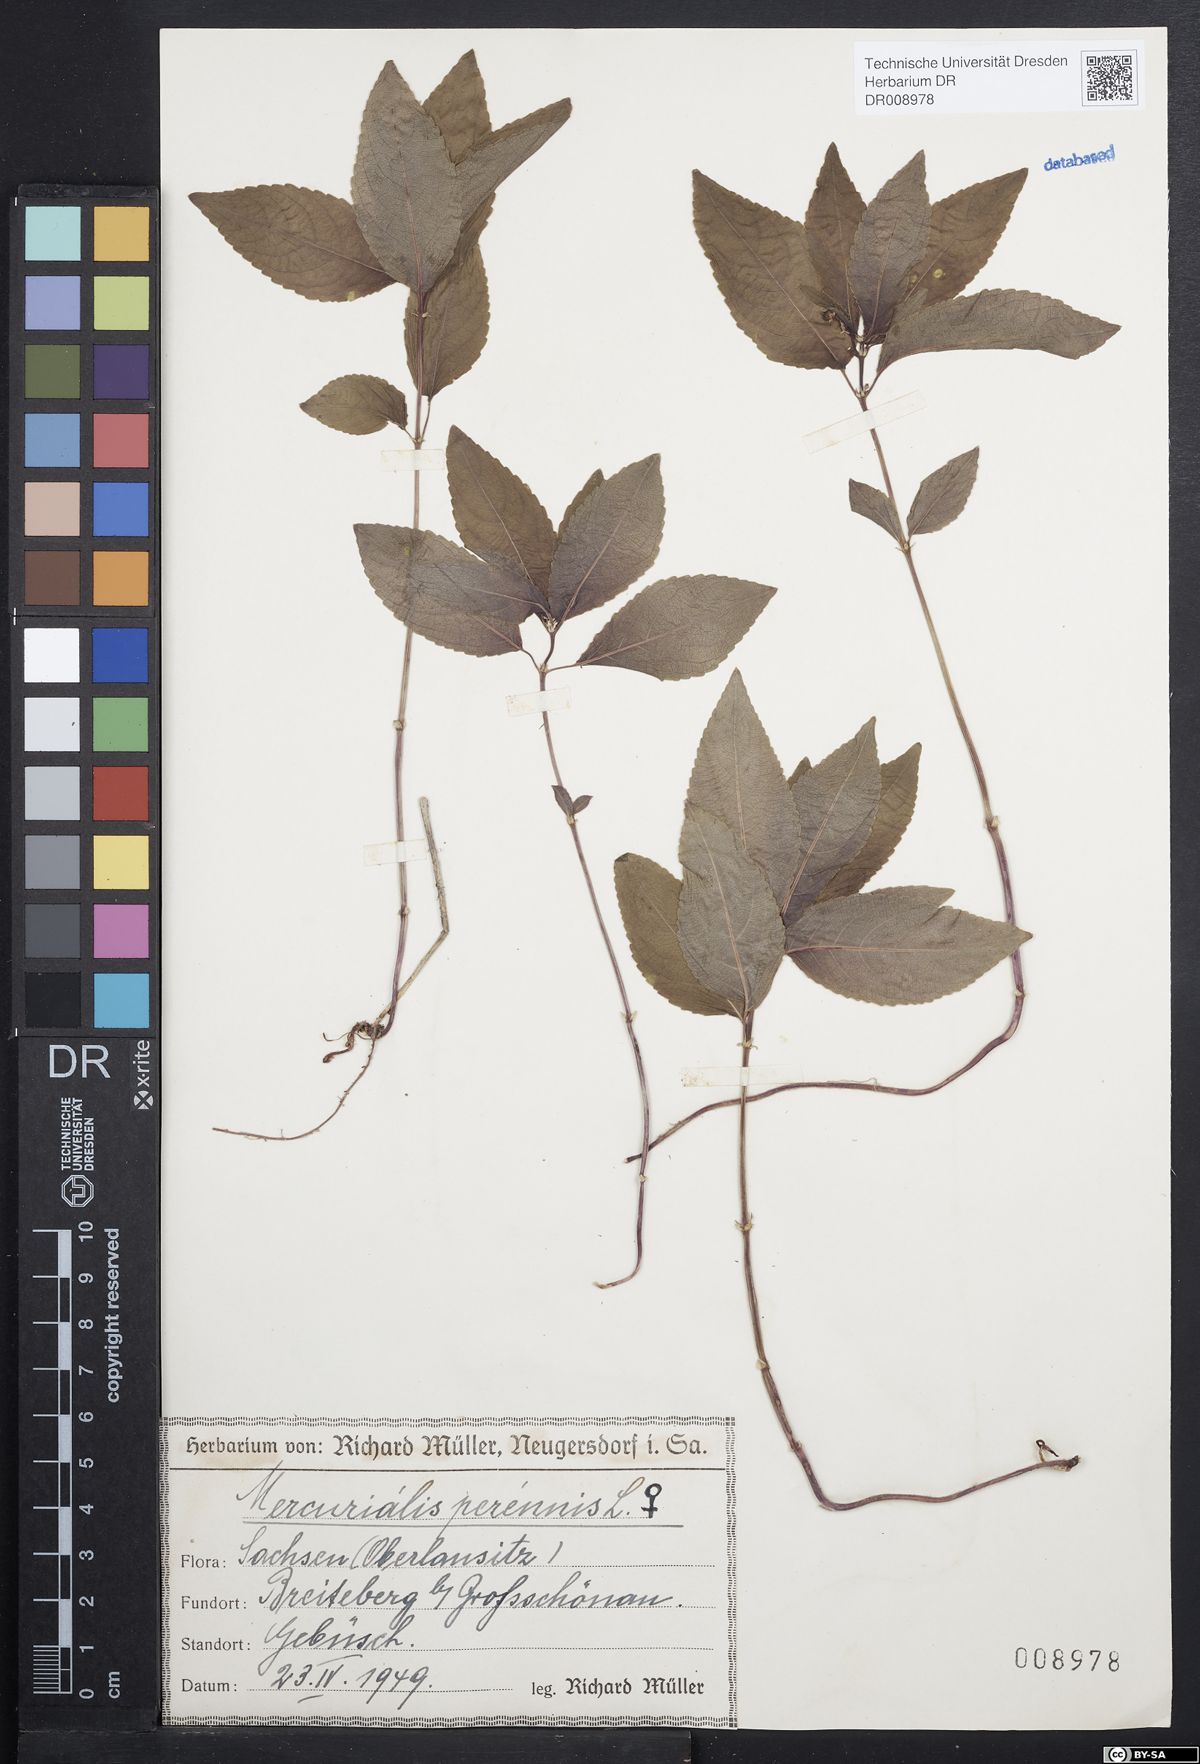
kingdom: Plantae
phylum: Tracheophyta
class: Magnoliopsida
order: Malpighiales
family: Euphorbiaceae
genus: Mercurialis
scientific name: Mercurialis perennis
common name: Dog mercury
